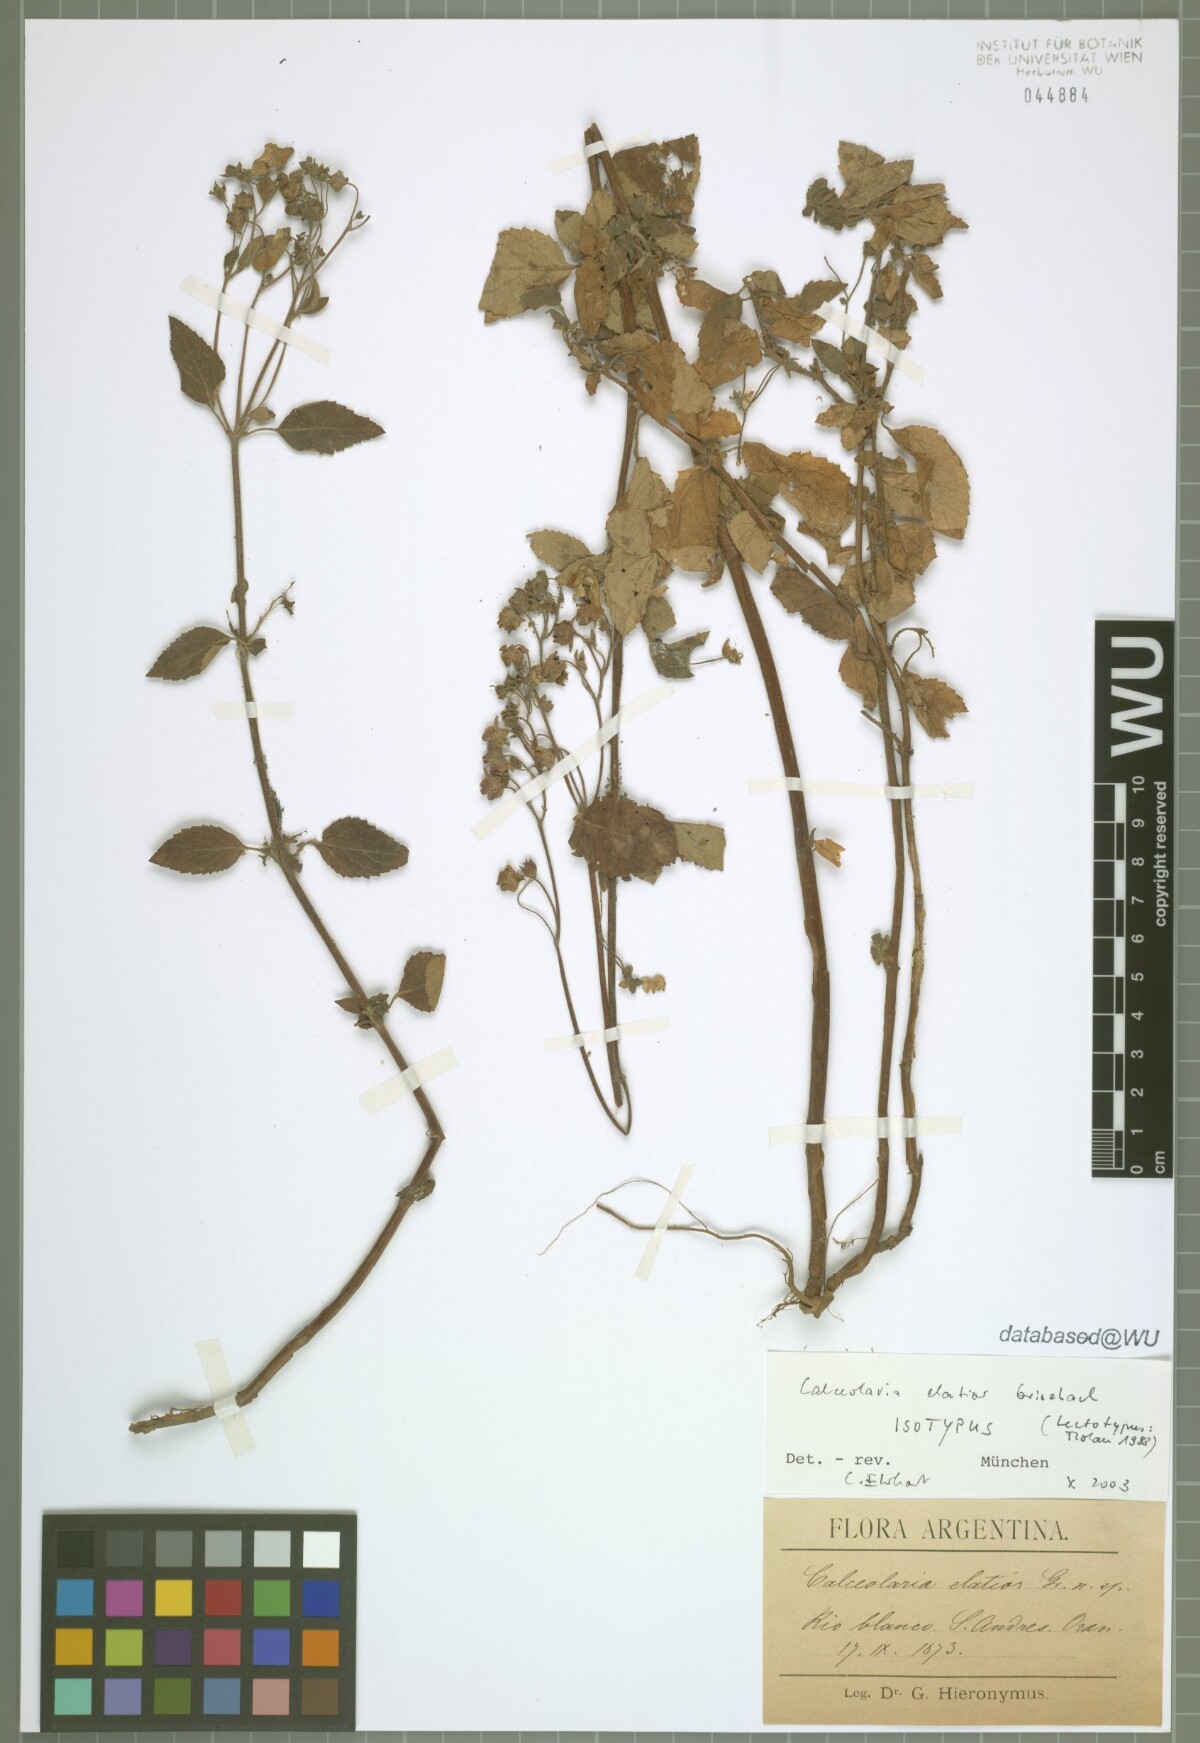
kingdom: Plantae
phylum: Tracheophyta
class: Magnoliopsida
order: Lamiales
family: Calceolariaceae
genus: Calceolaria
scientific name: Calceolaria elatior
